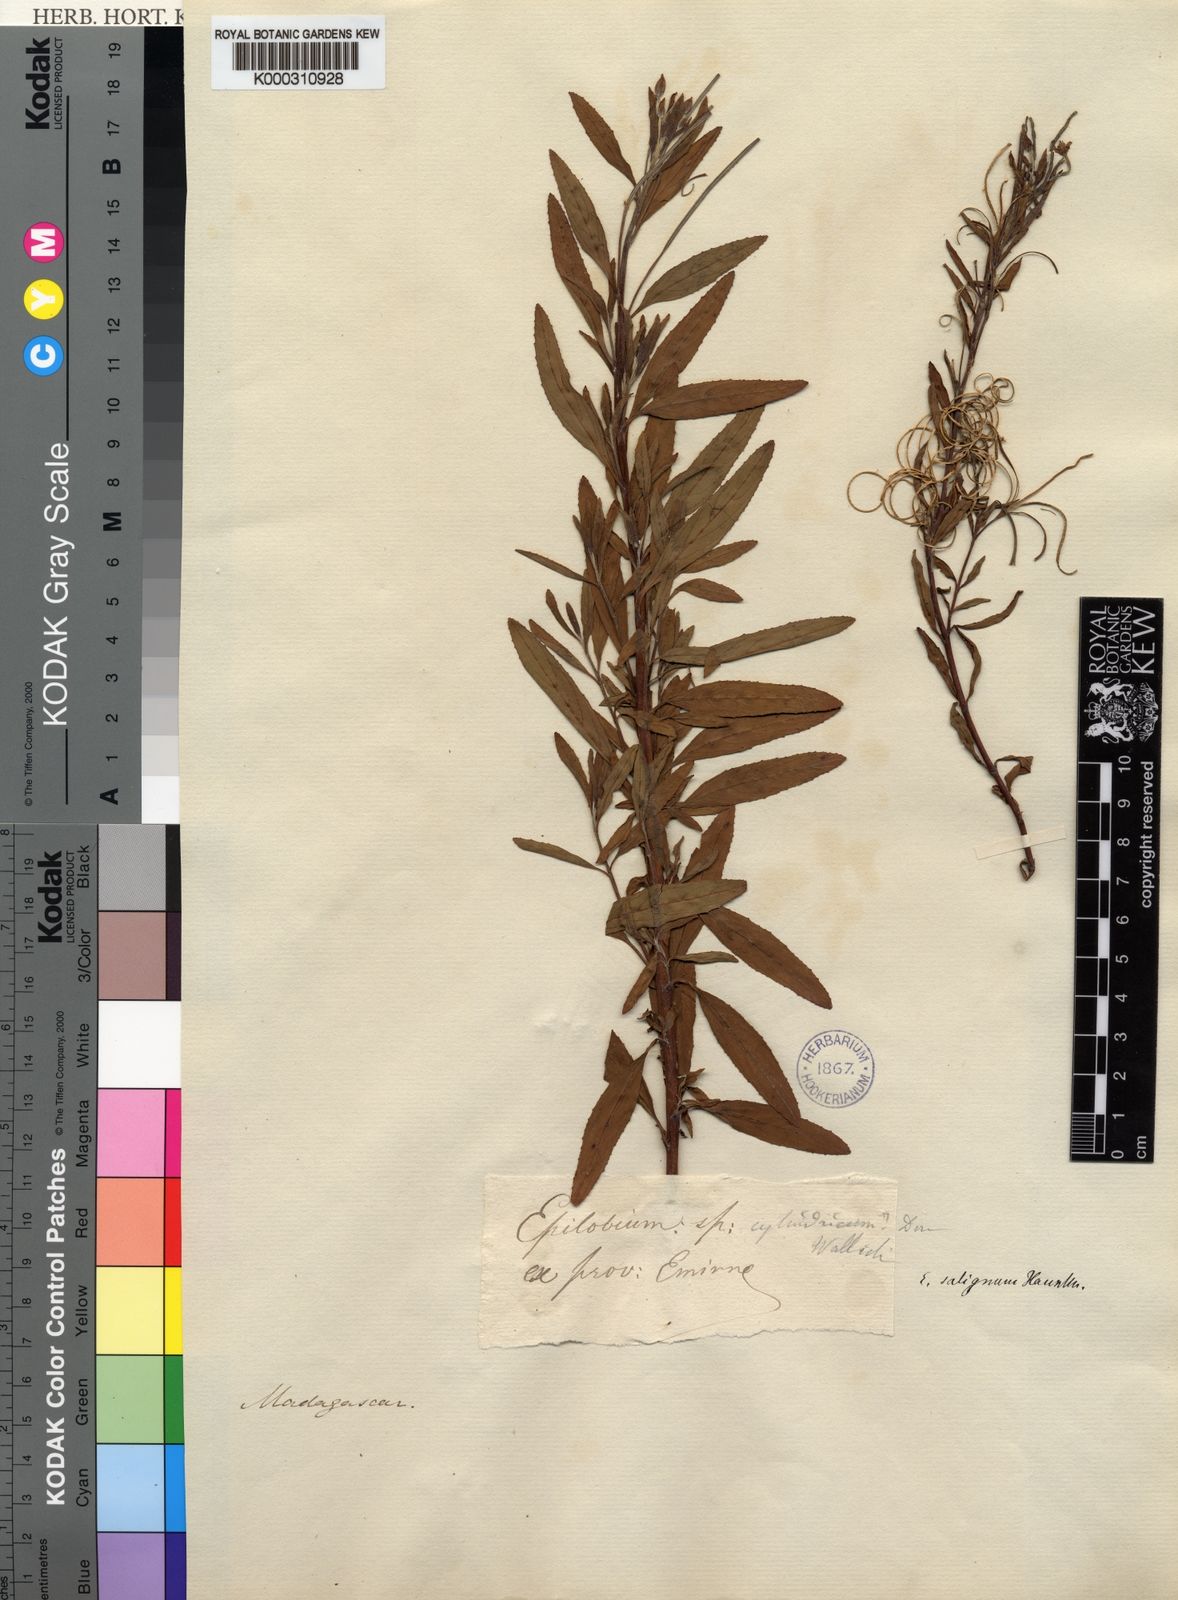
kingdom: Plantae
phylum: Tracheophyta
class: Magnoliopsida
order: Myrtales
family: Onagraceae
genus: Epilobium
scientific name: Epilobium salignum
